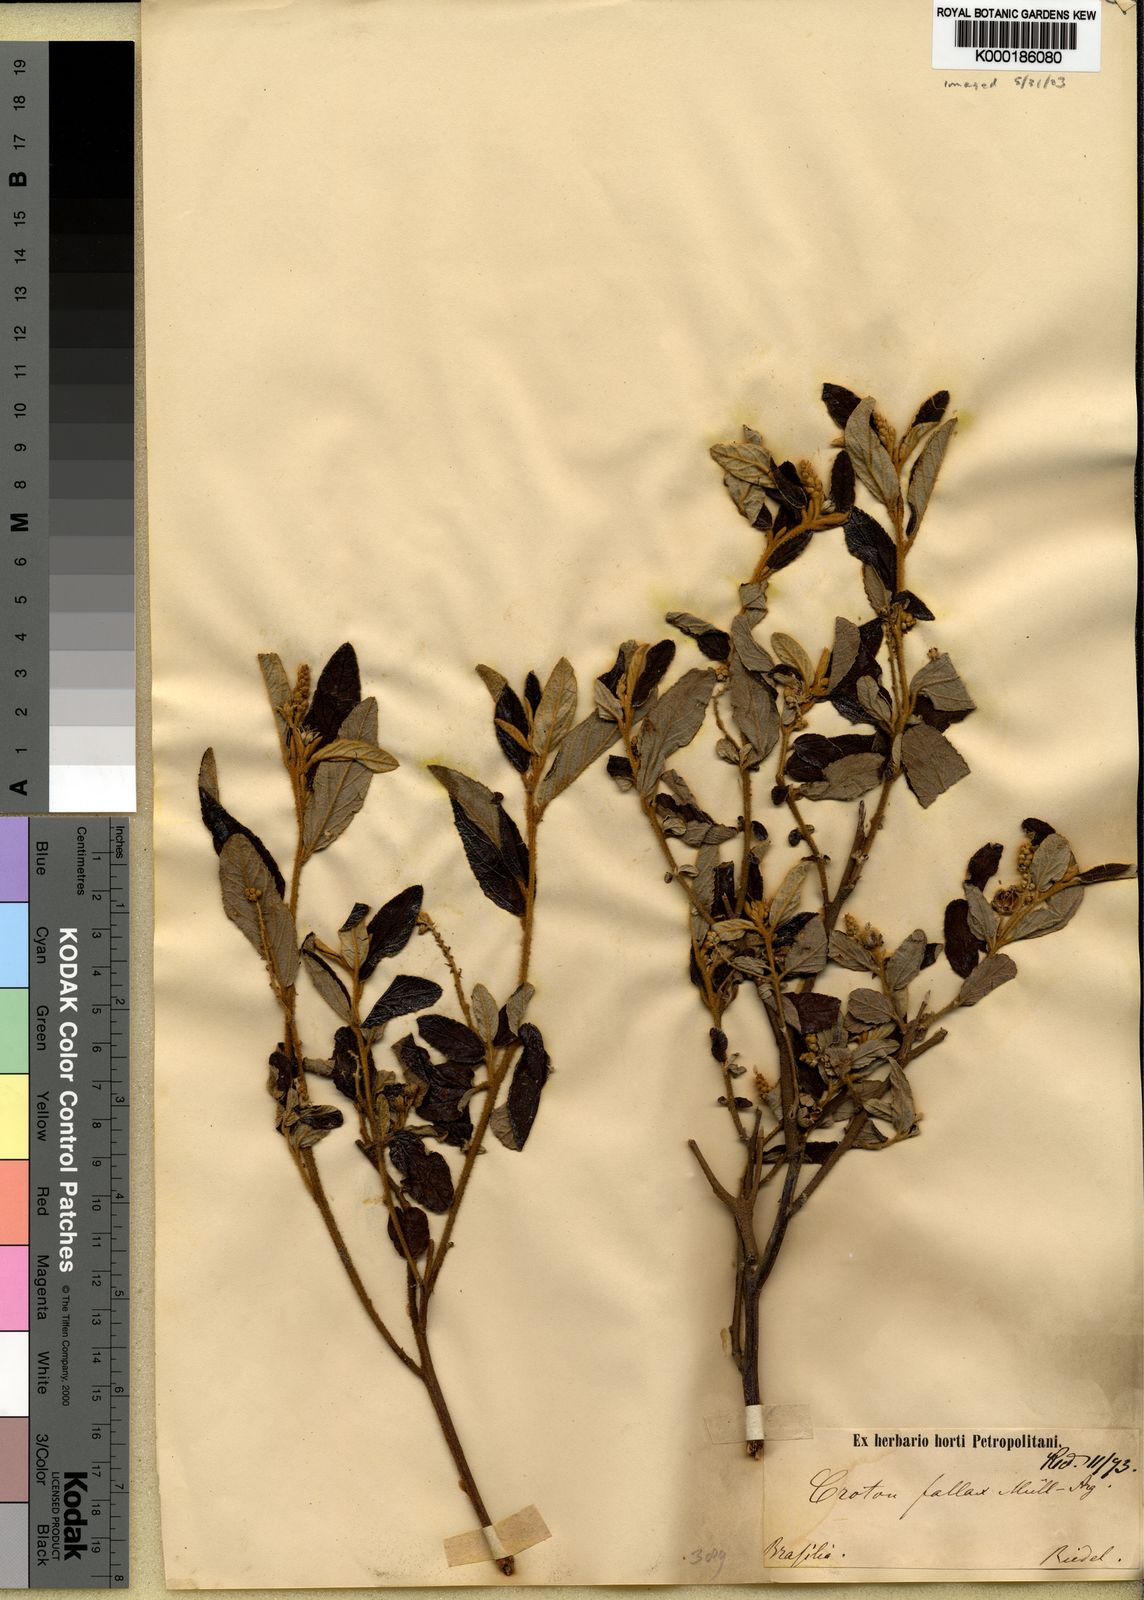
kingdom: Plantae
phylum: Tracheophyta
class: Magnoliopsida
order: Malpighiales
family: Euphorbiaceae
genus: Croton
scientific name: Croton
